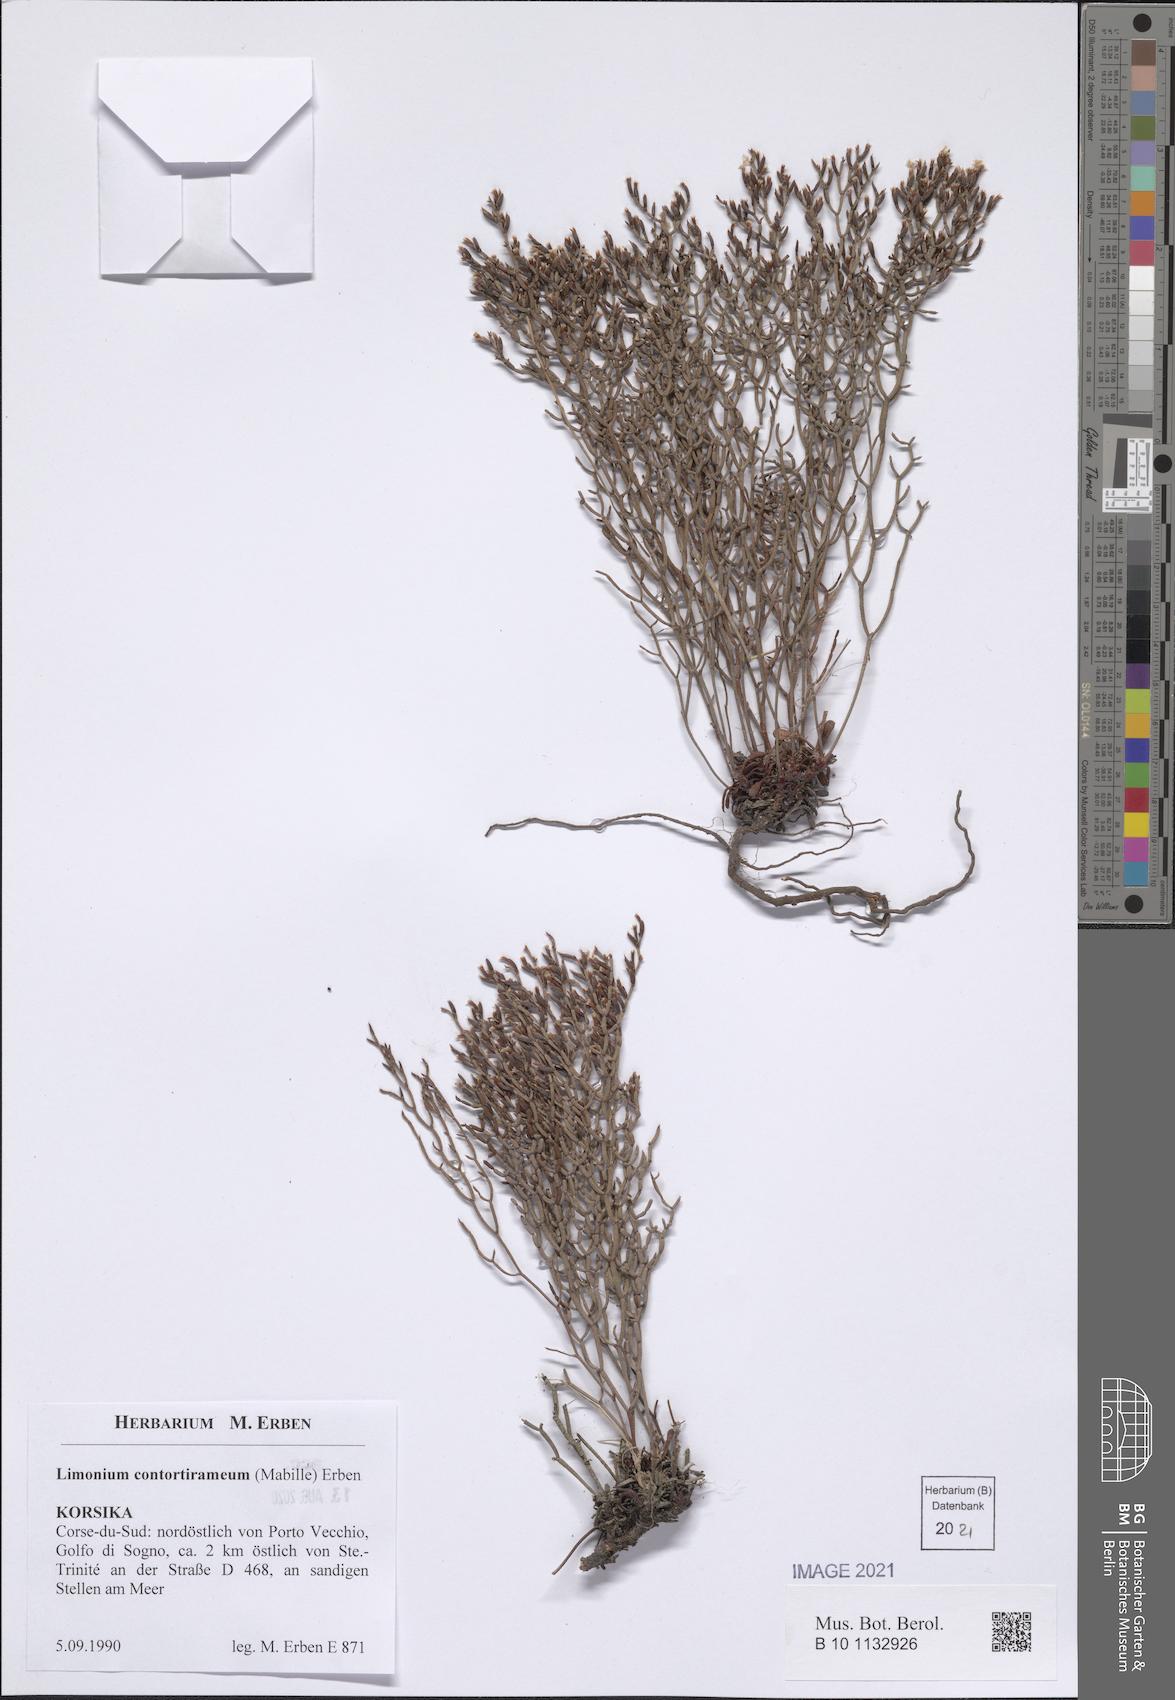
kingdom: Plantae
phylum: Tracheophyta
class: Magnoliopsida
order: Caryophyllales
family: Plumbaginaceae
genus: Limonium
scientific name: Limonium contortirameum
